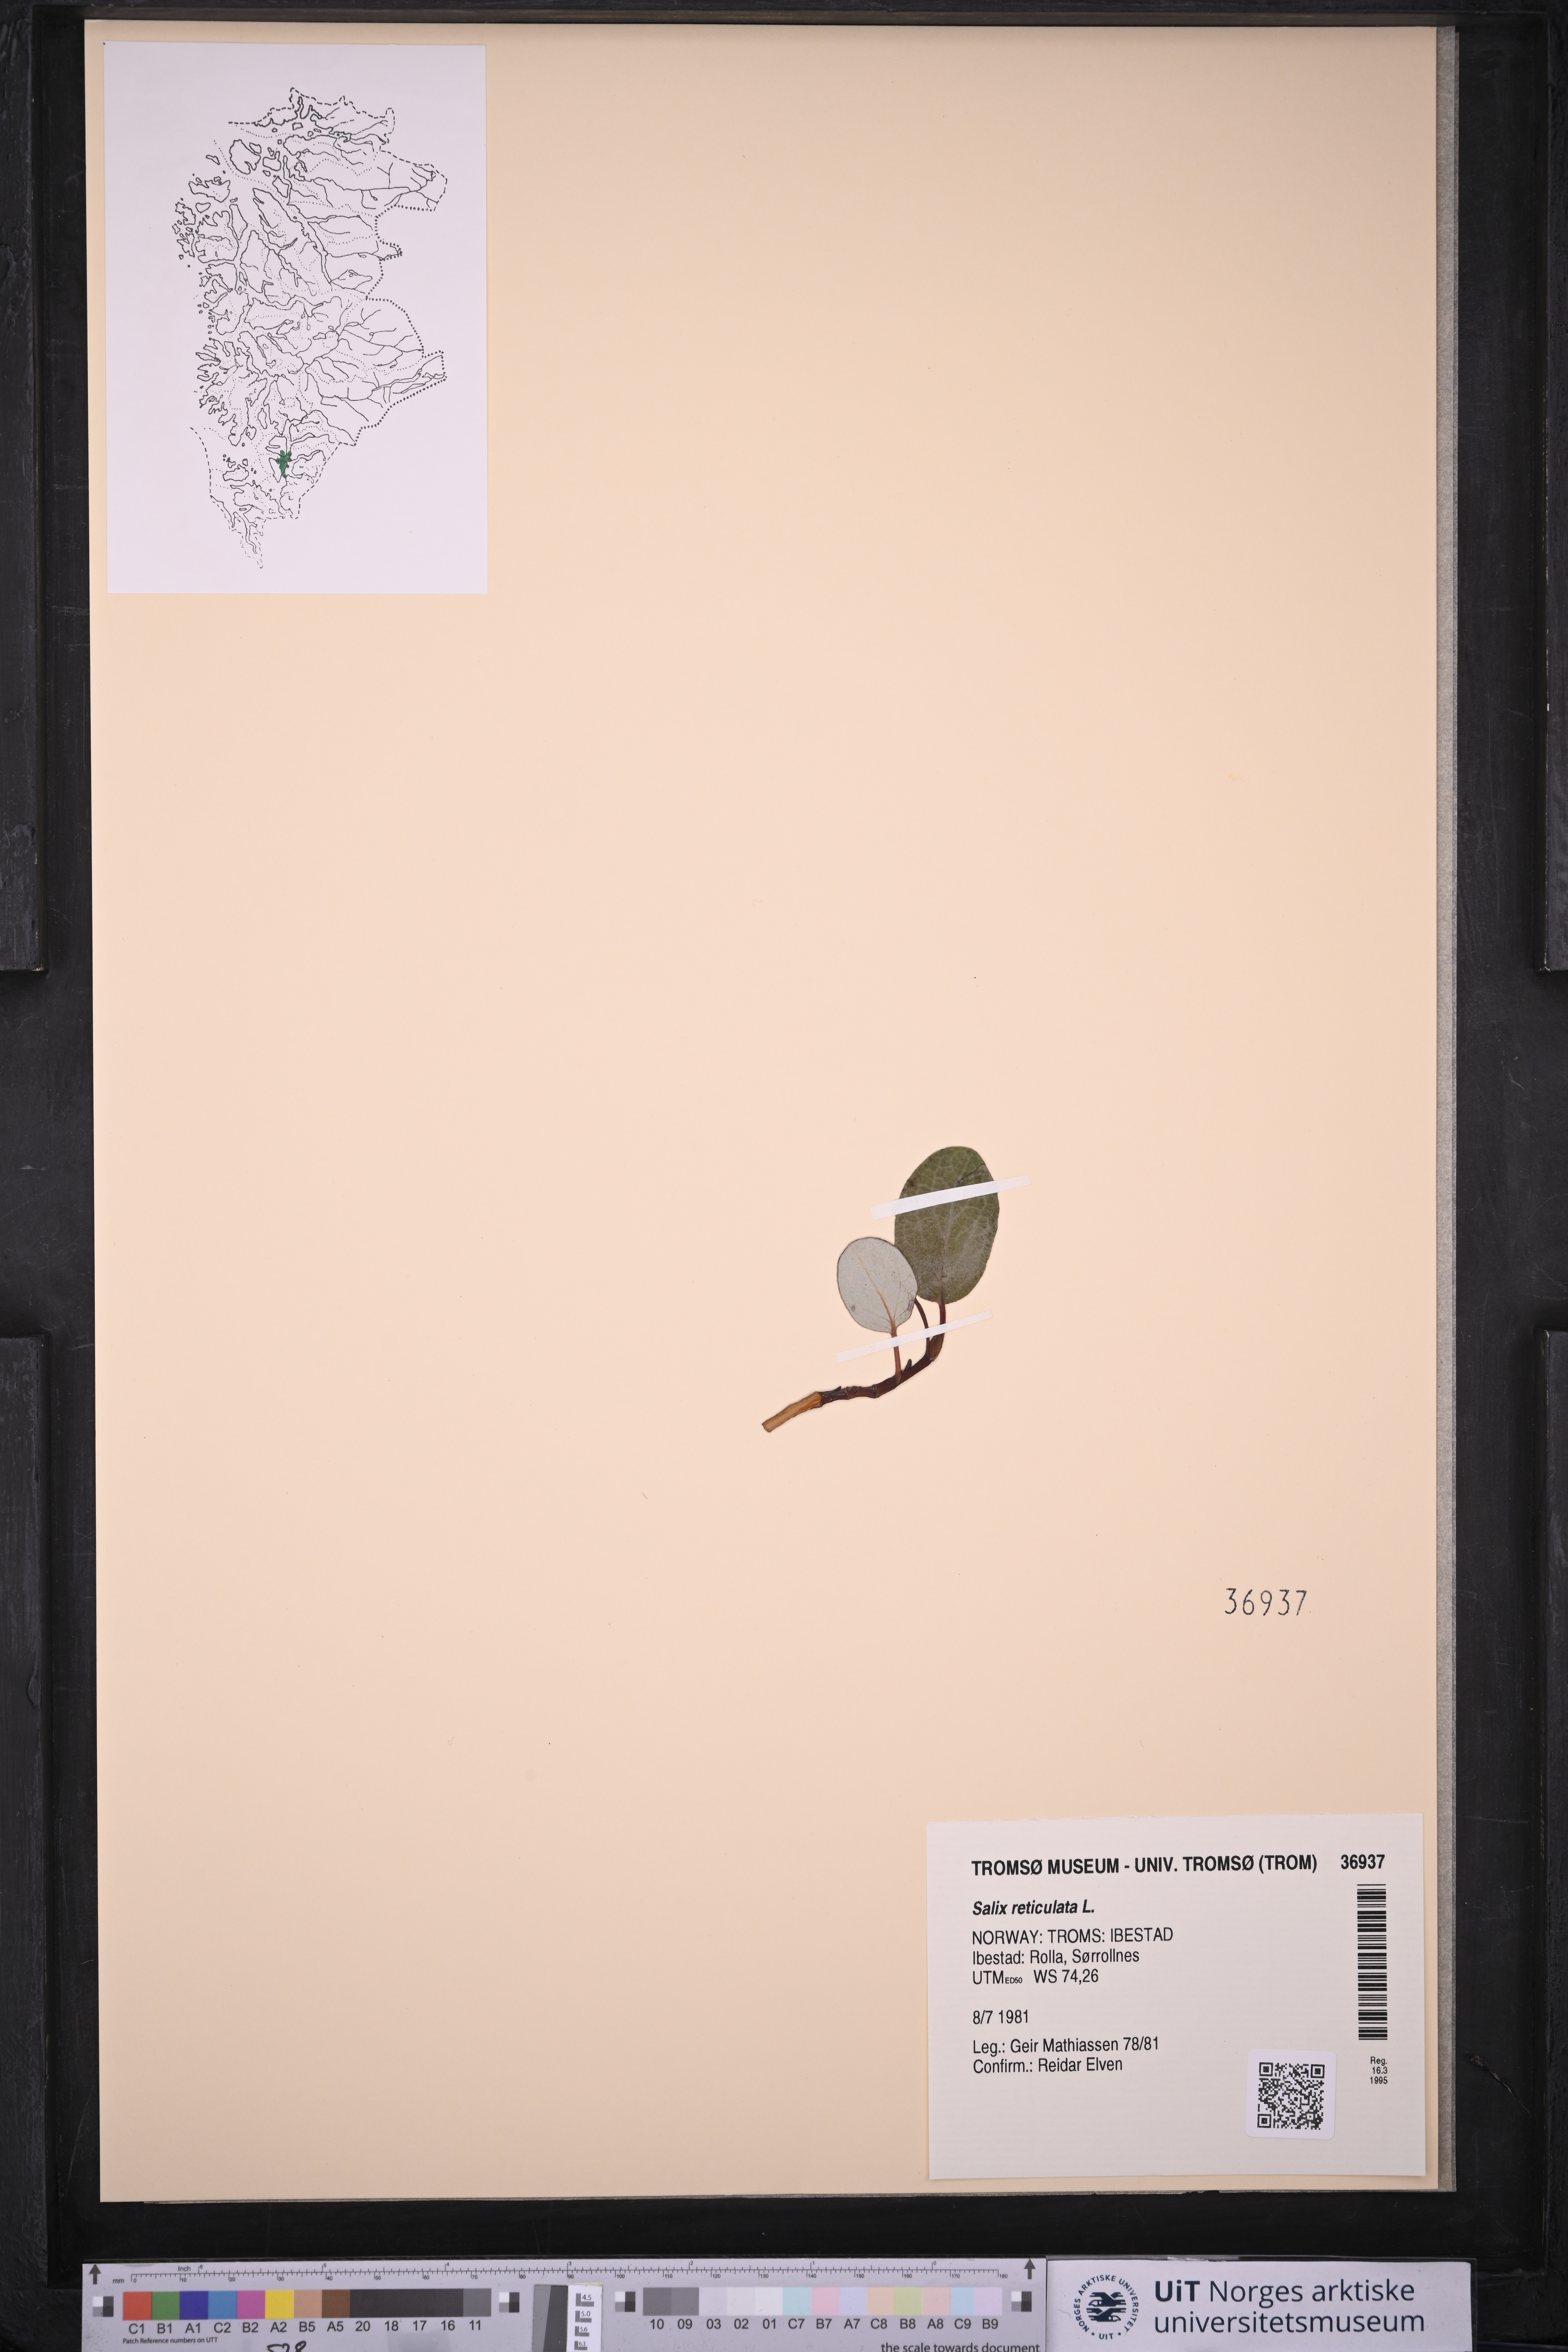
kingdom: Plantae
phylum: Tracheophyta
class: Magnoliopsida
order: Malpighiales
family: Salicaceae
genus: Salix
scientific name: Salix reticulata
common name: Net-leaved willow
